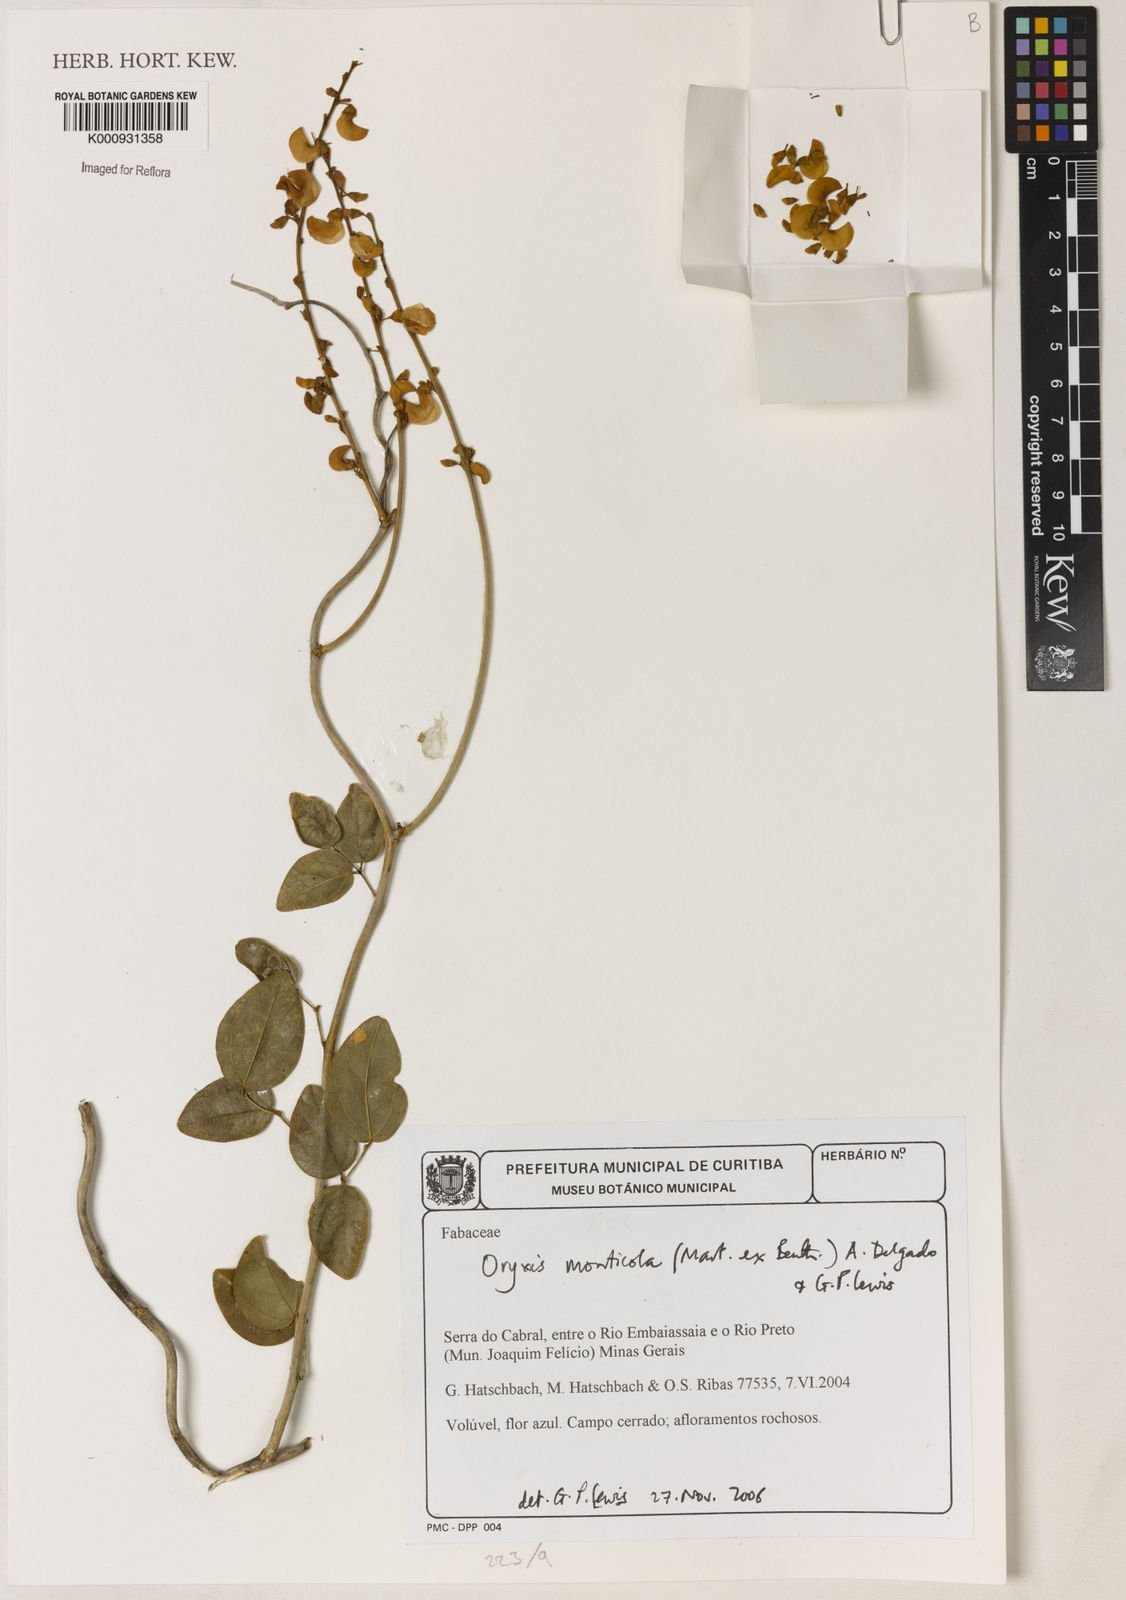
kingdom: Plantae
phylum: Tracheophyta
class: Magnoliopsida
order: Fabales
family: Fabaceae
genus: Dolichopsis
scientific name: Dolichopsis monticola
